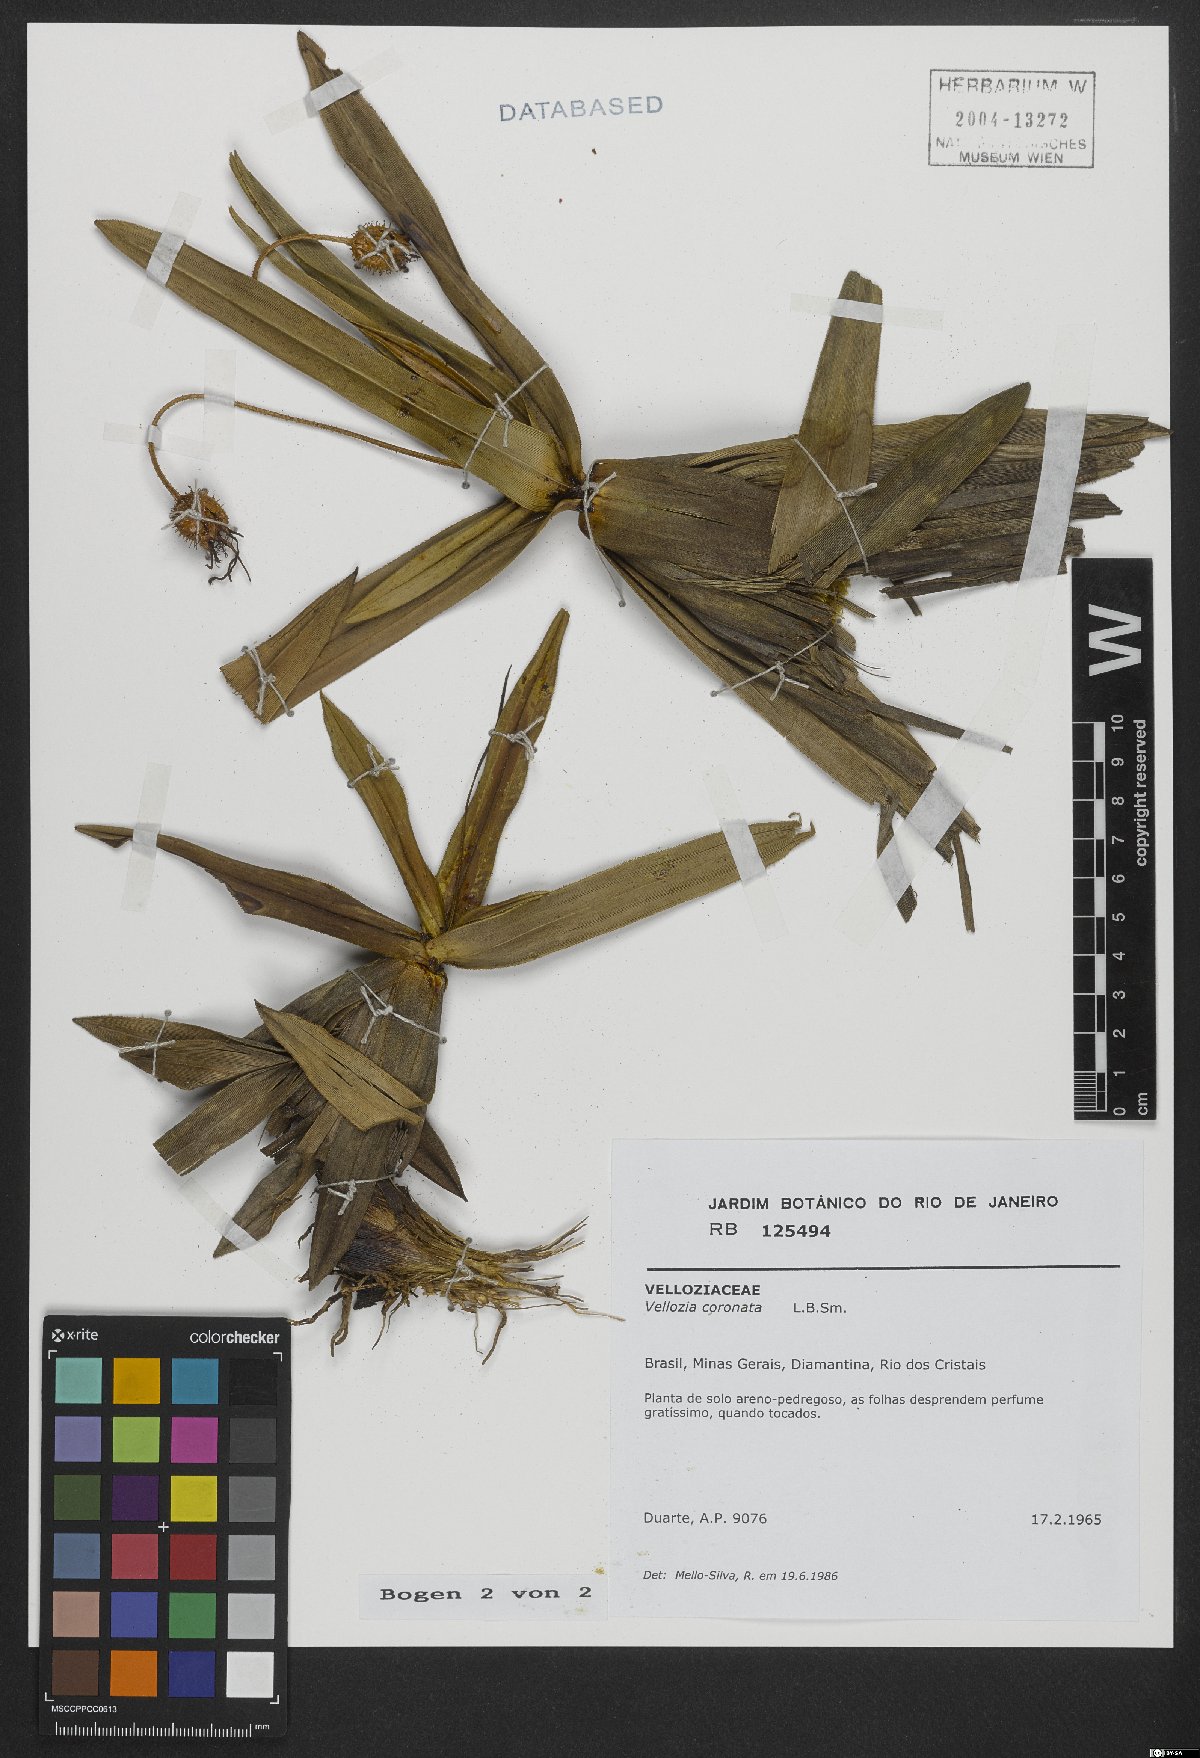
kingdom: Plantae
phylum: Tracheophyta
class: Liliopsida
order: Pandanales
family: Velloziaceae
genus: Vellozia
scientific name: Vellozia coronata
